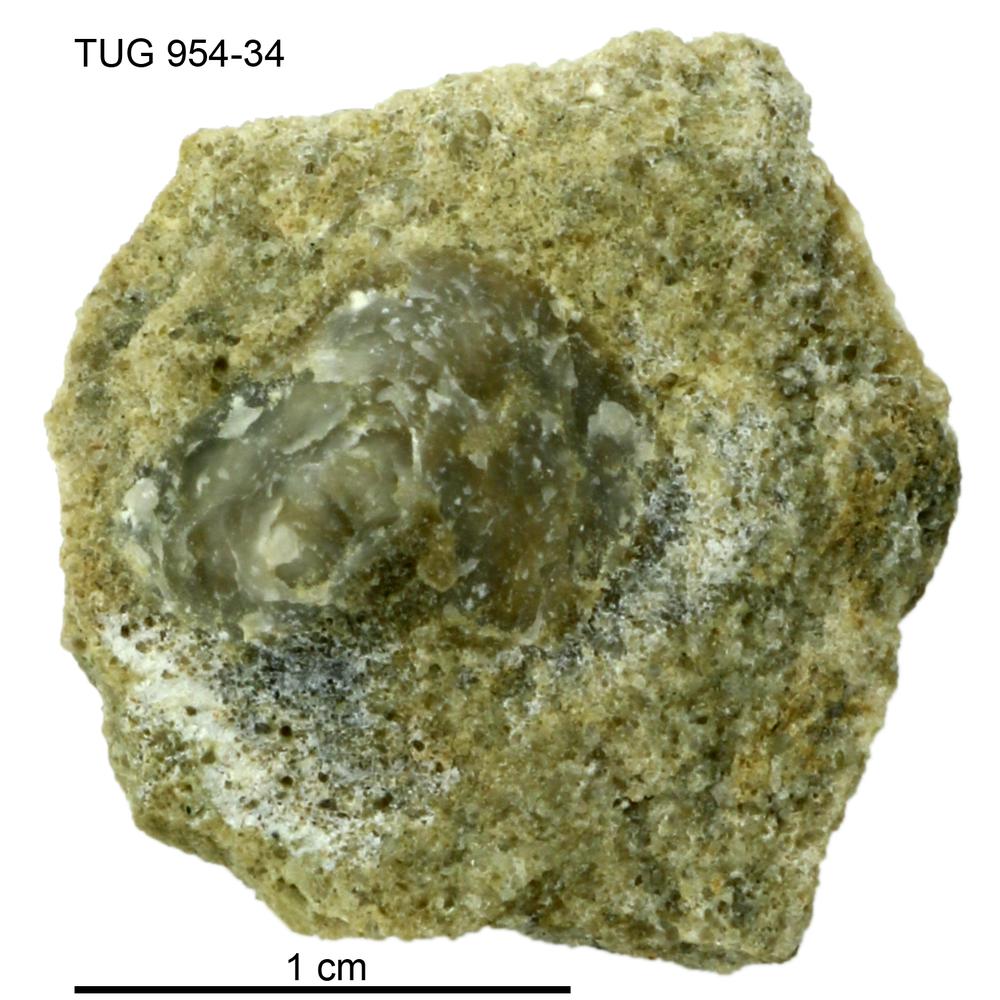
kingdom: Animalia
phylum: Mollusca
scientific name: Mollusca
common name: Mollusca
